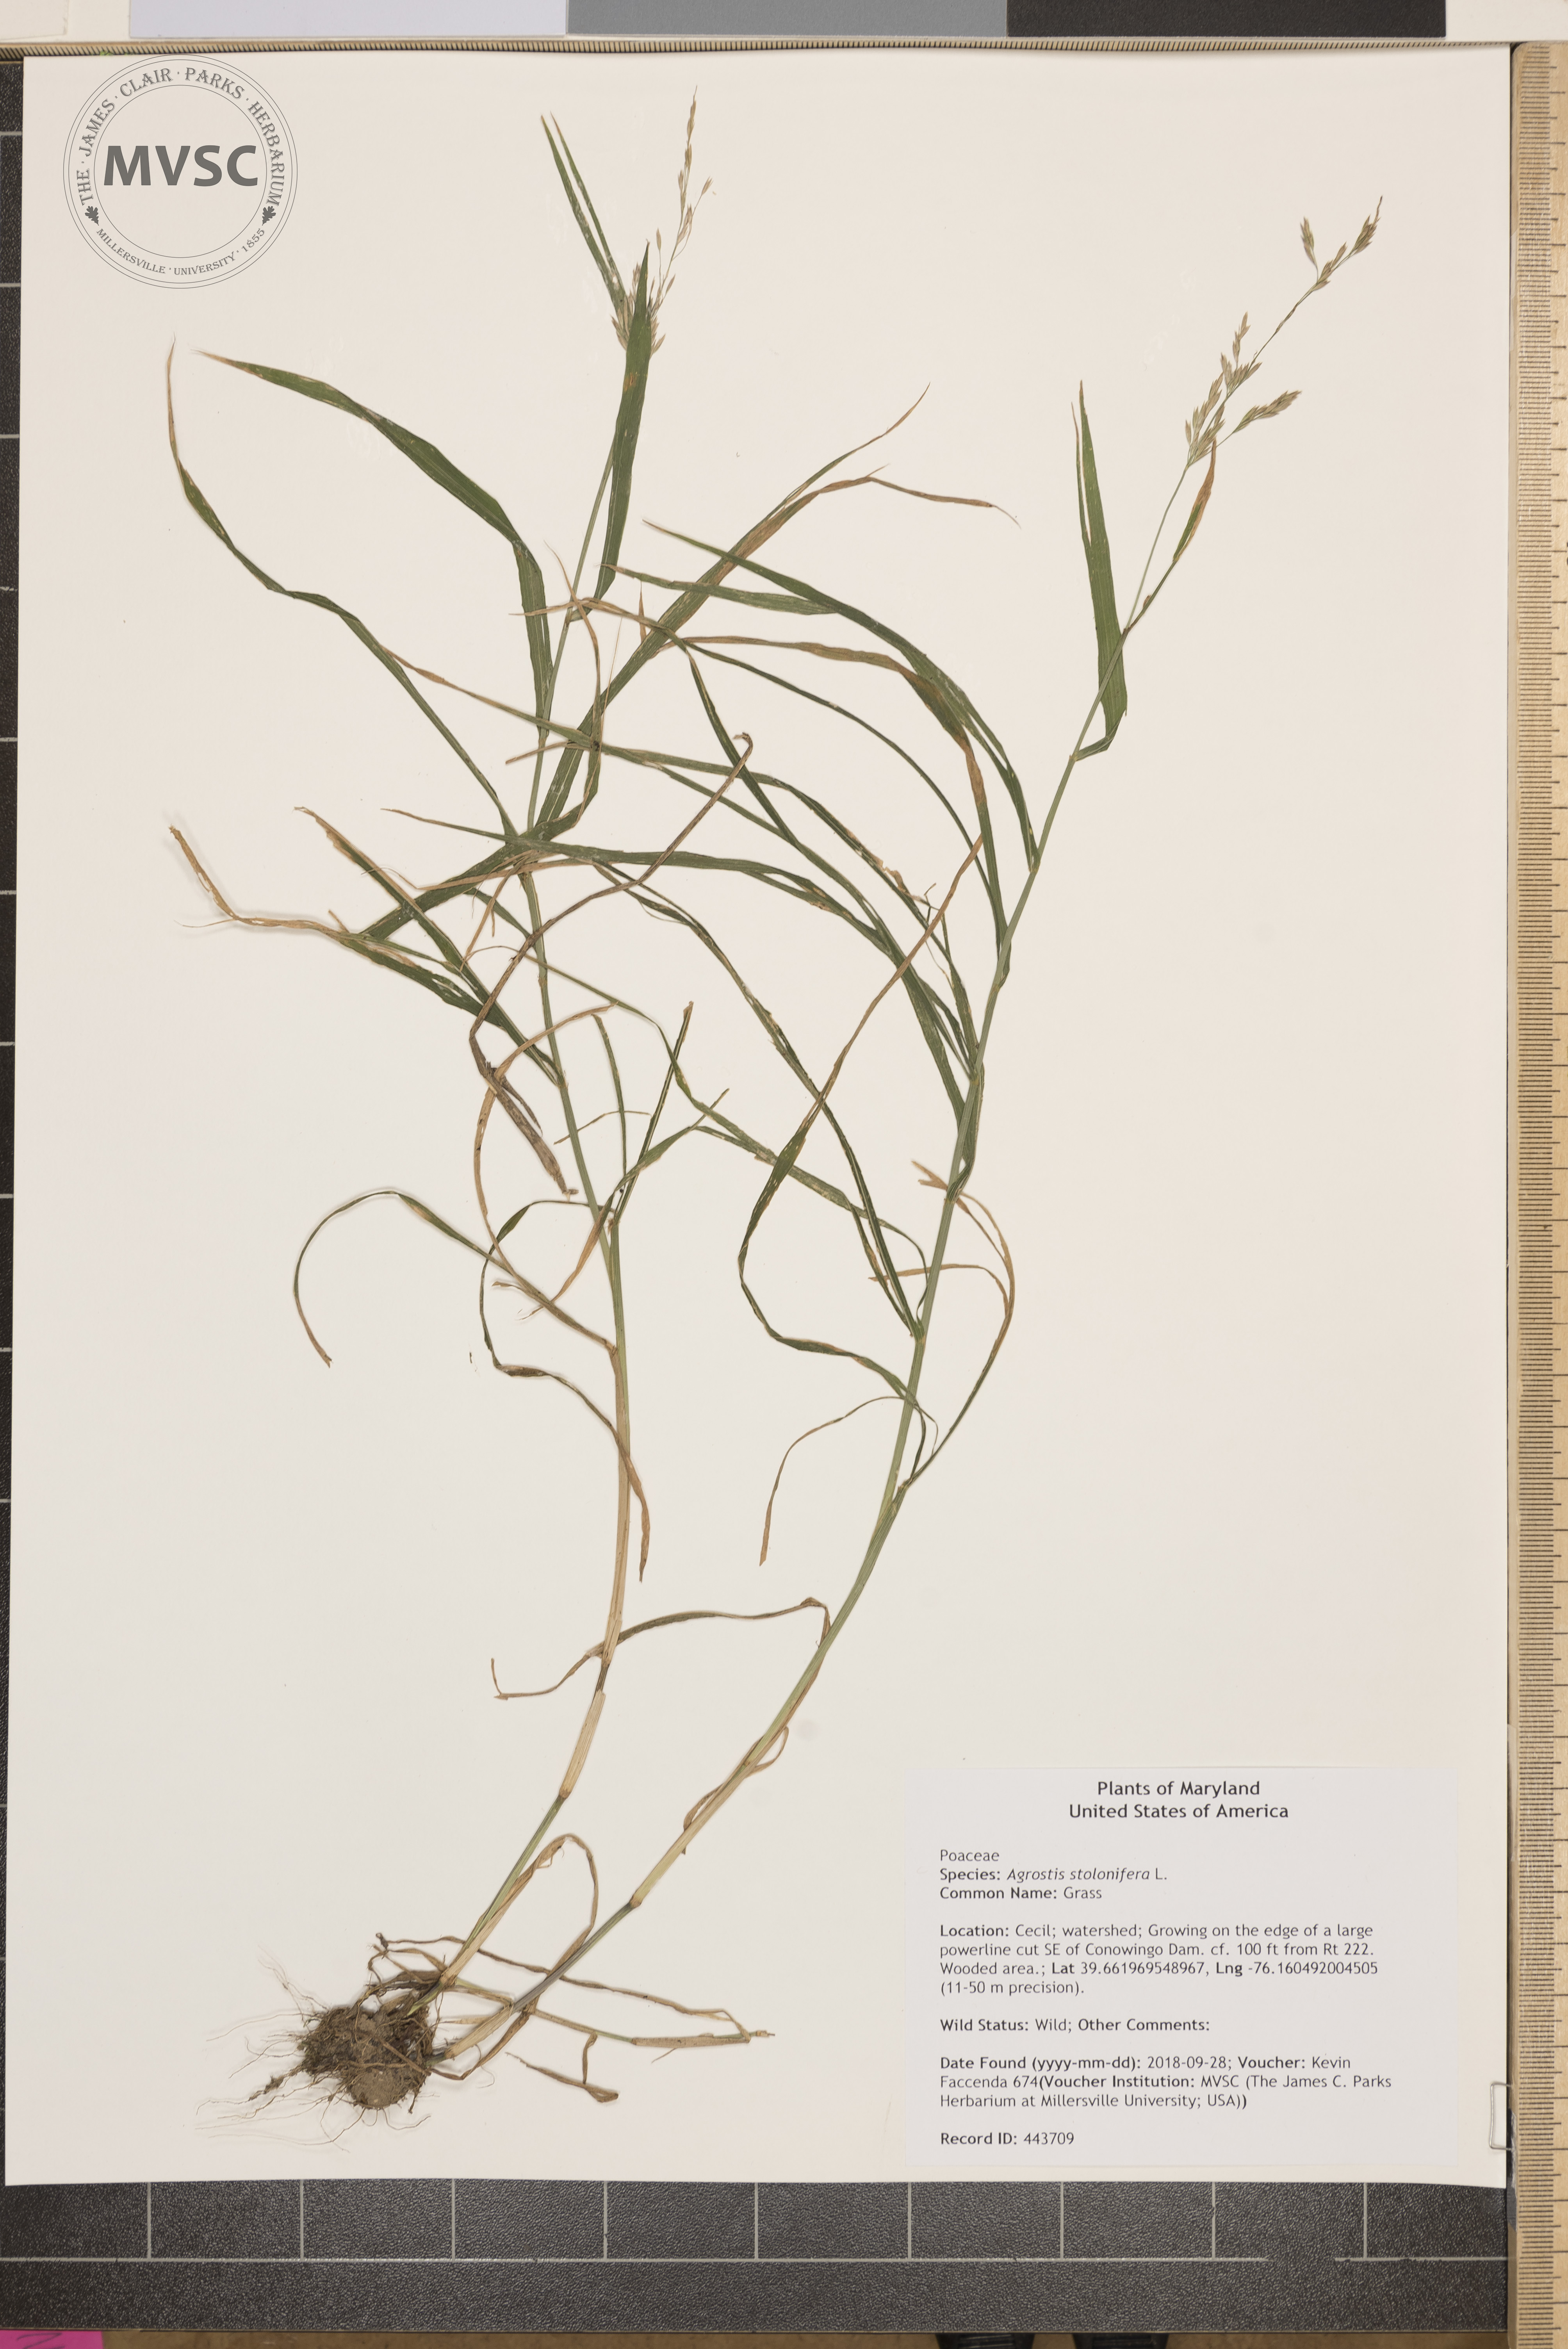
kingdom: Plantae
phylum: Tracheophyta
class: Liliopsida
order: Poales
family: Poaceae
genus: Agrostis
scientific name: Agrostis stolonifera
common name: Grass
